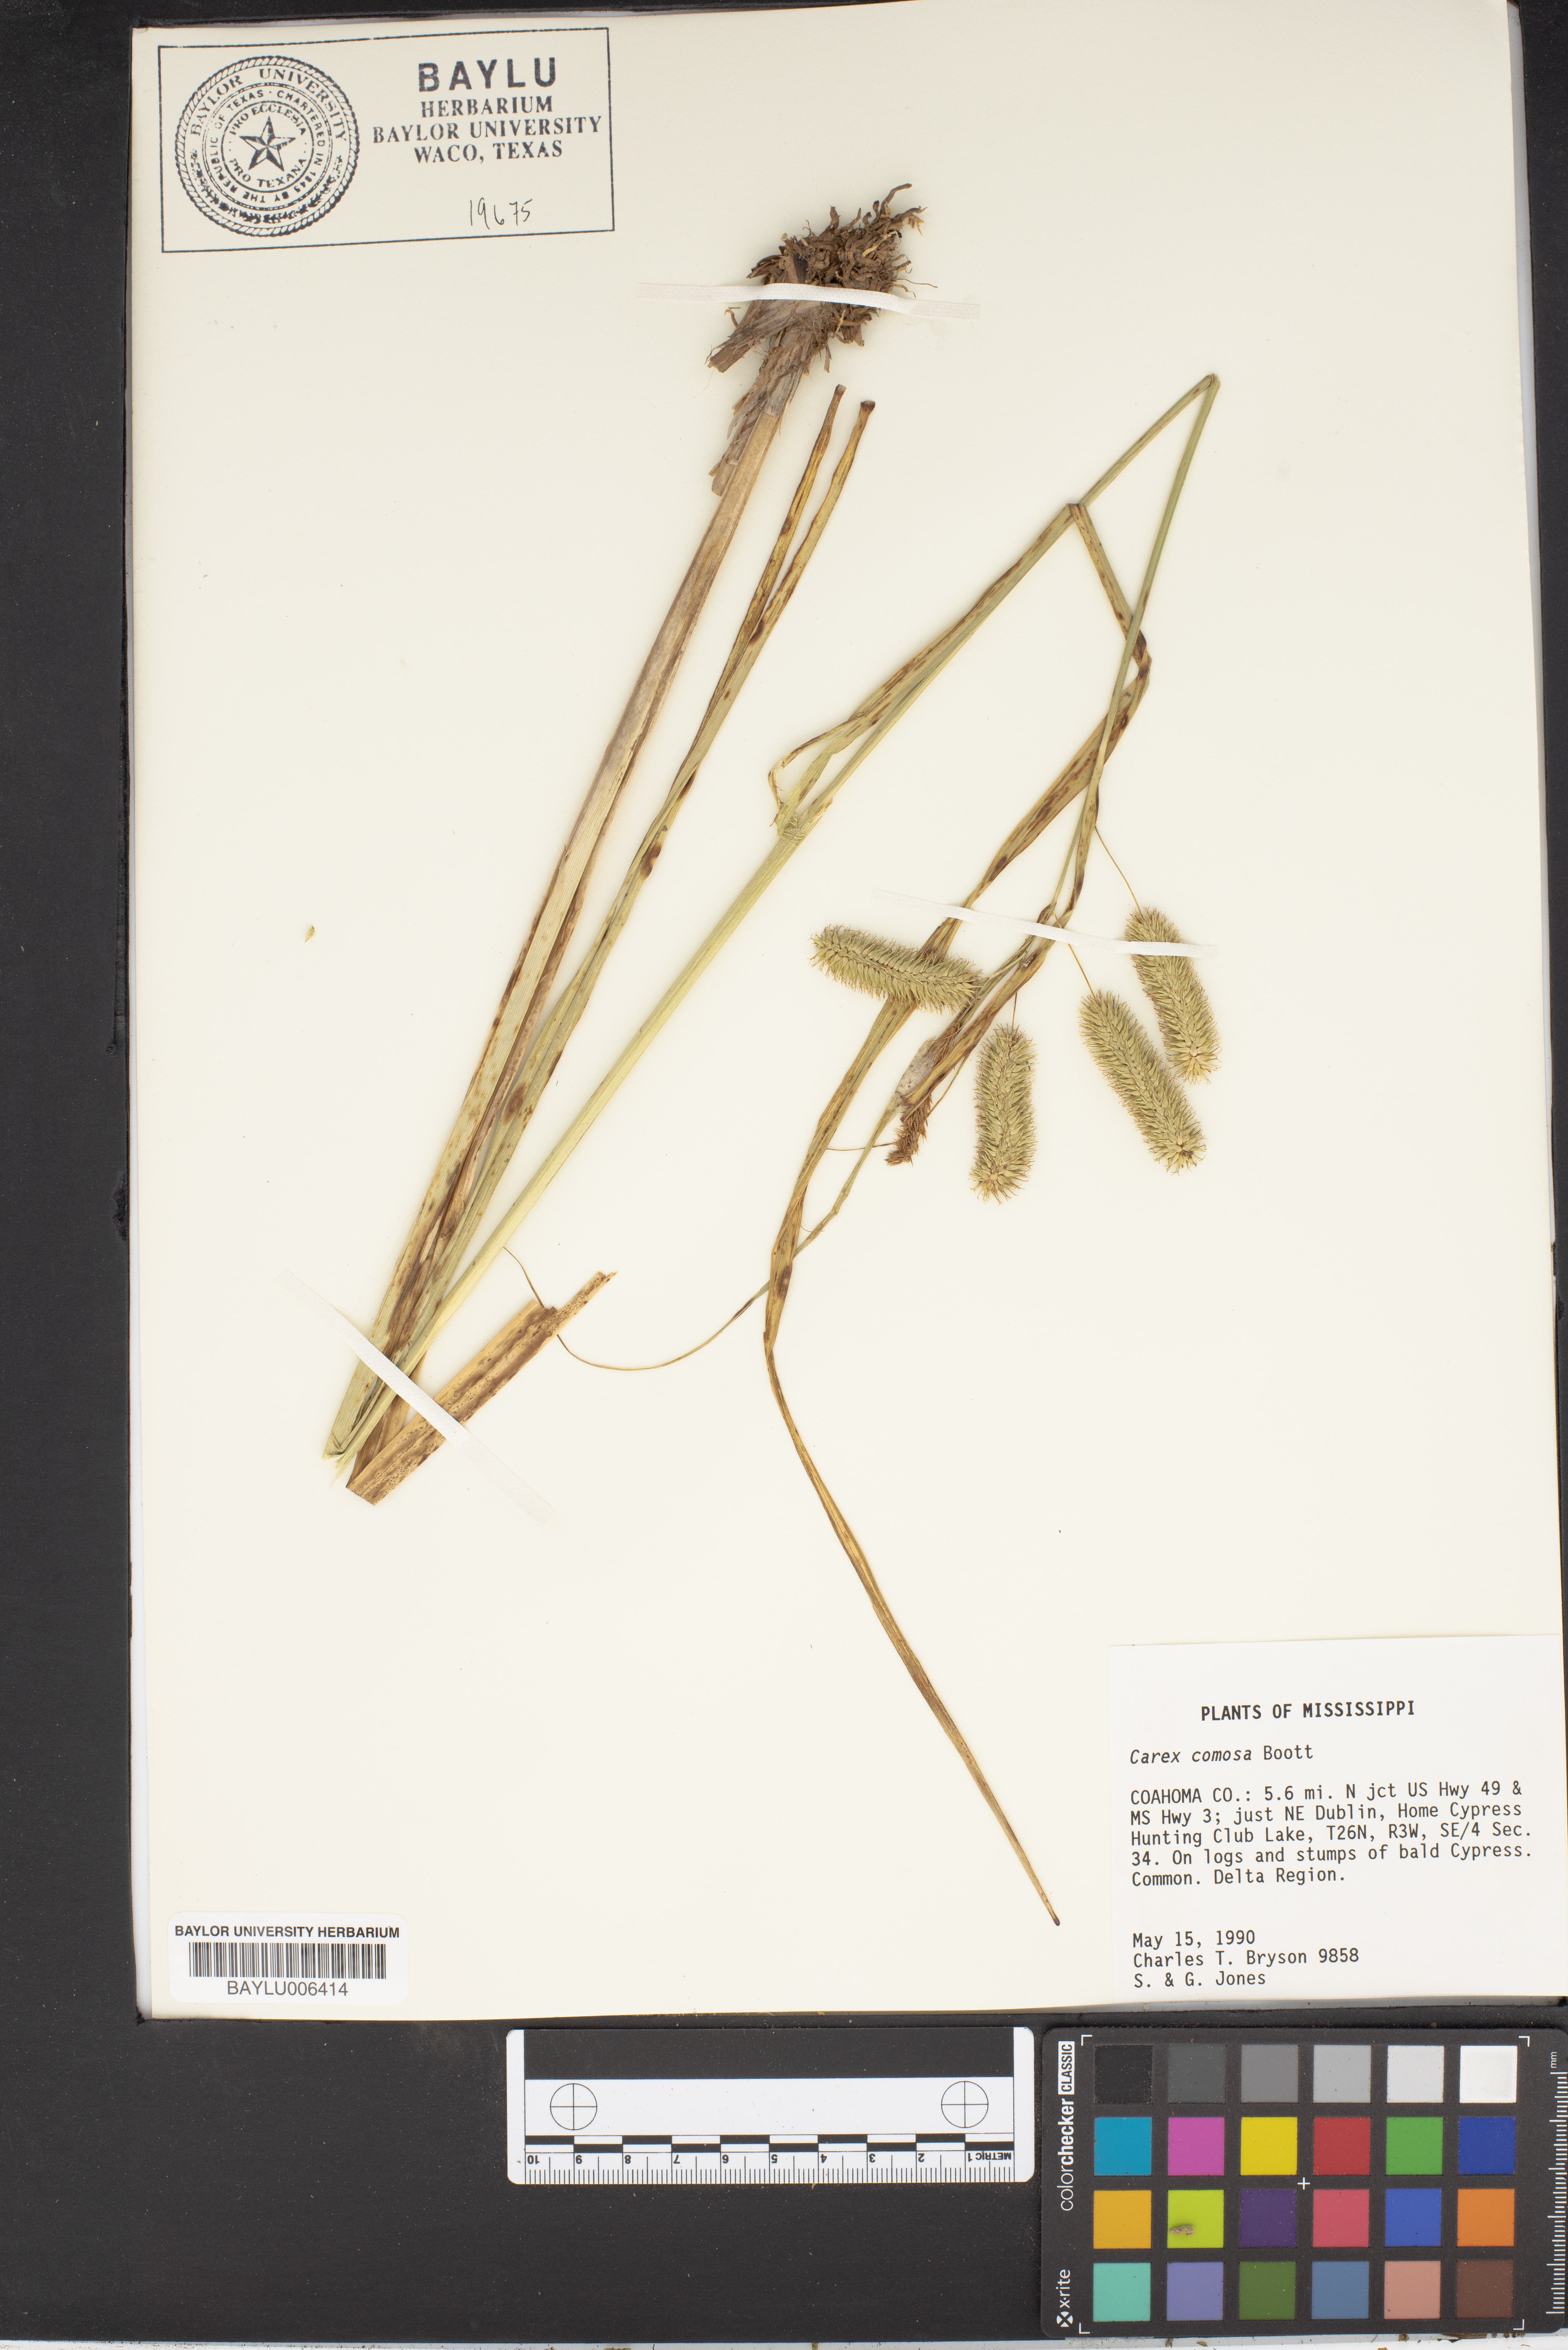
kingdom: Plantae
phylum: Tracheophyta
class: Liliopsida
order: Poales
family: Cyperaceae
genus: Carex
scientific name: Carex comosa
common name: Bristly sedge
